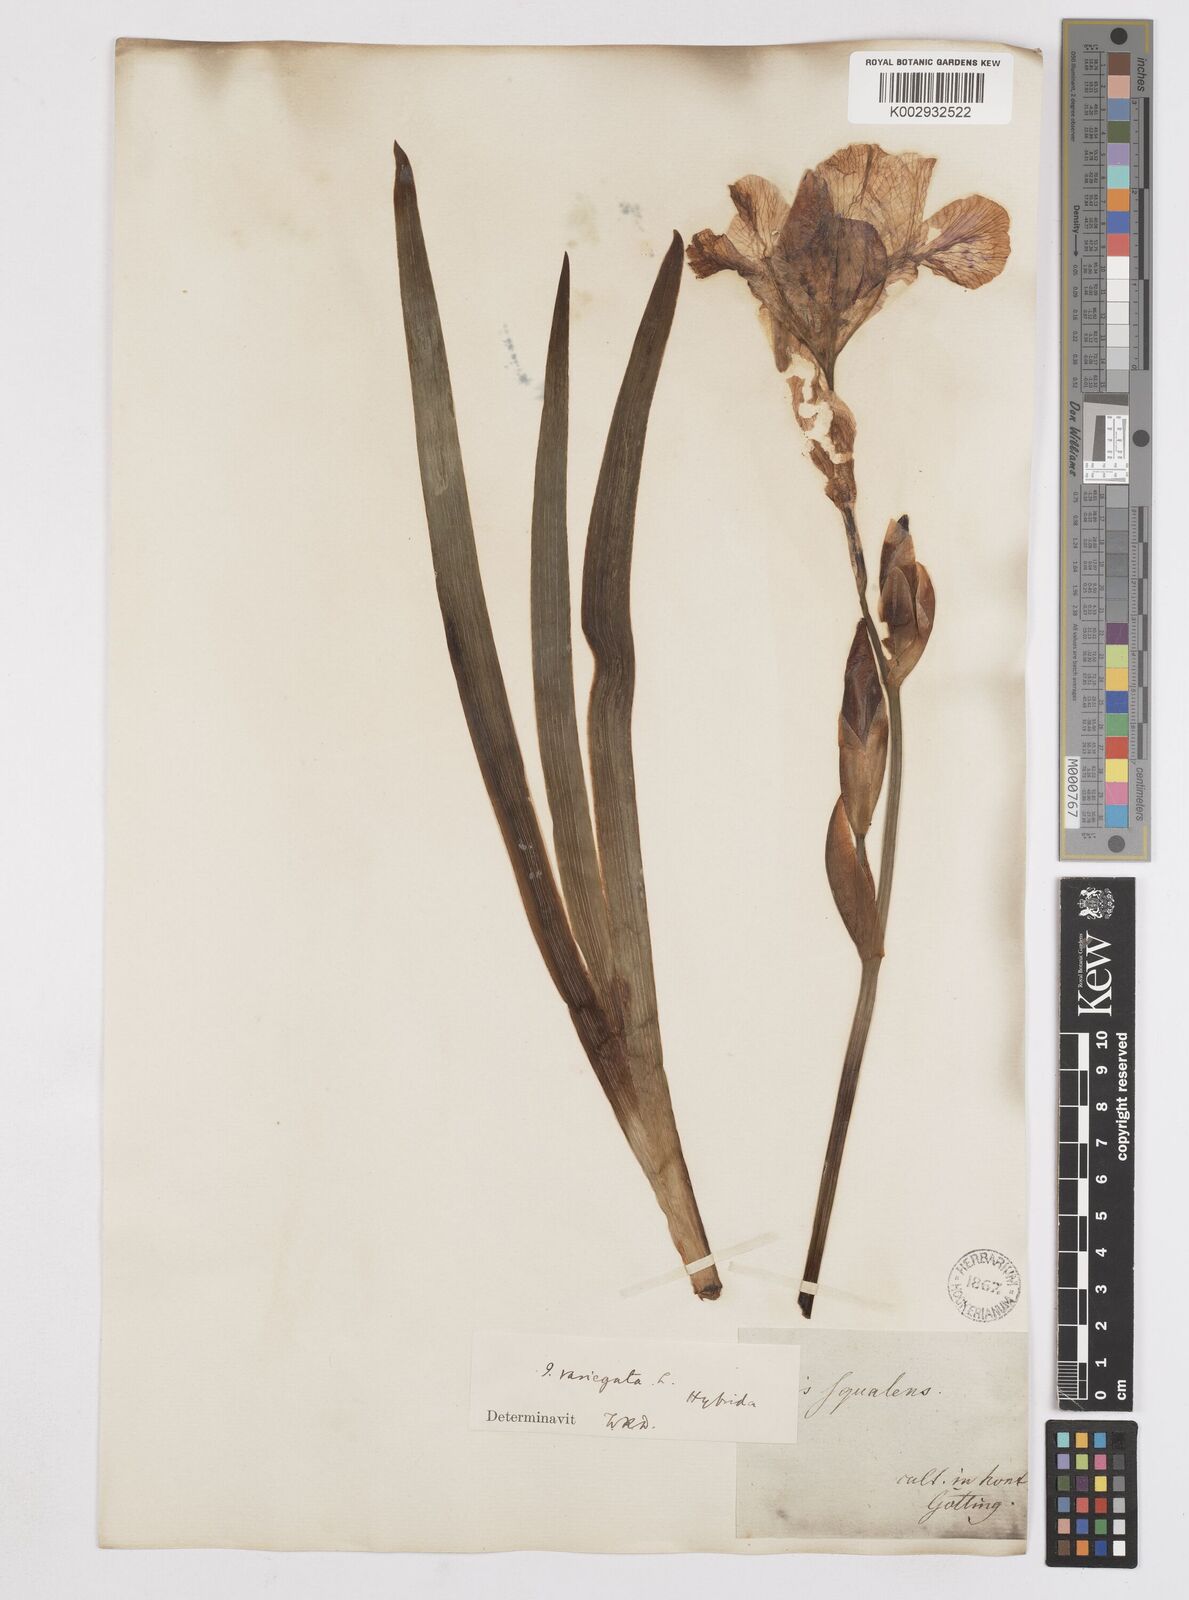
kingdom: Plantae
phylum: Tracheophyta
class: Liliopsida
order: Asparagales
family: Iridaceae
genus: Iris
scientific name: Iris
